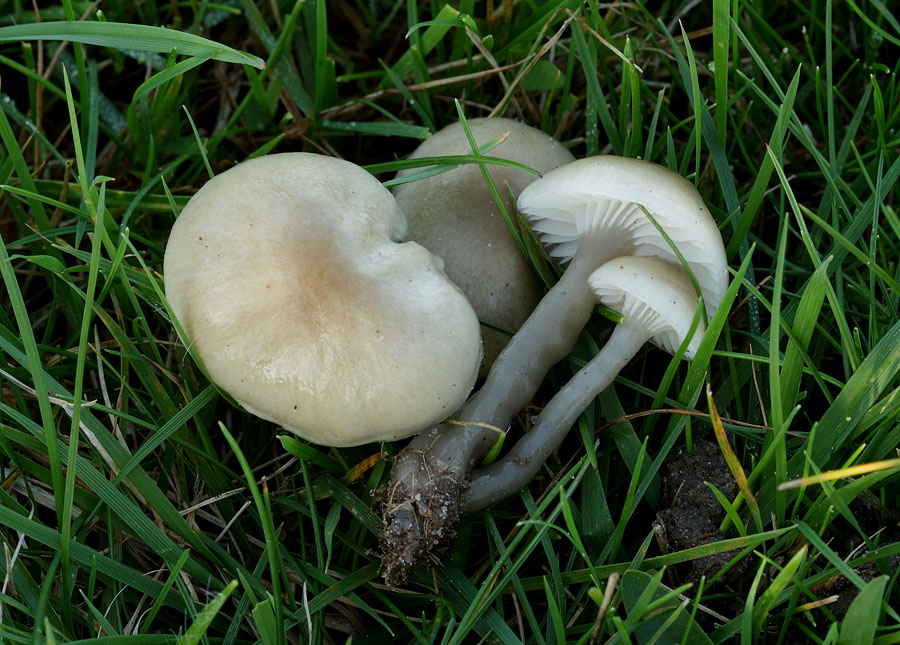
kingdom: Fungi
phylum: Basidiomycota
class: Agaricomycetes
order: Agaricales
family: Hygrophoraceae
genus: Gliophorus
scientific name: Gliophorus irrigatus
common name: slimet vokshat
